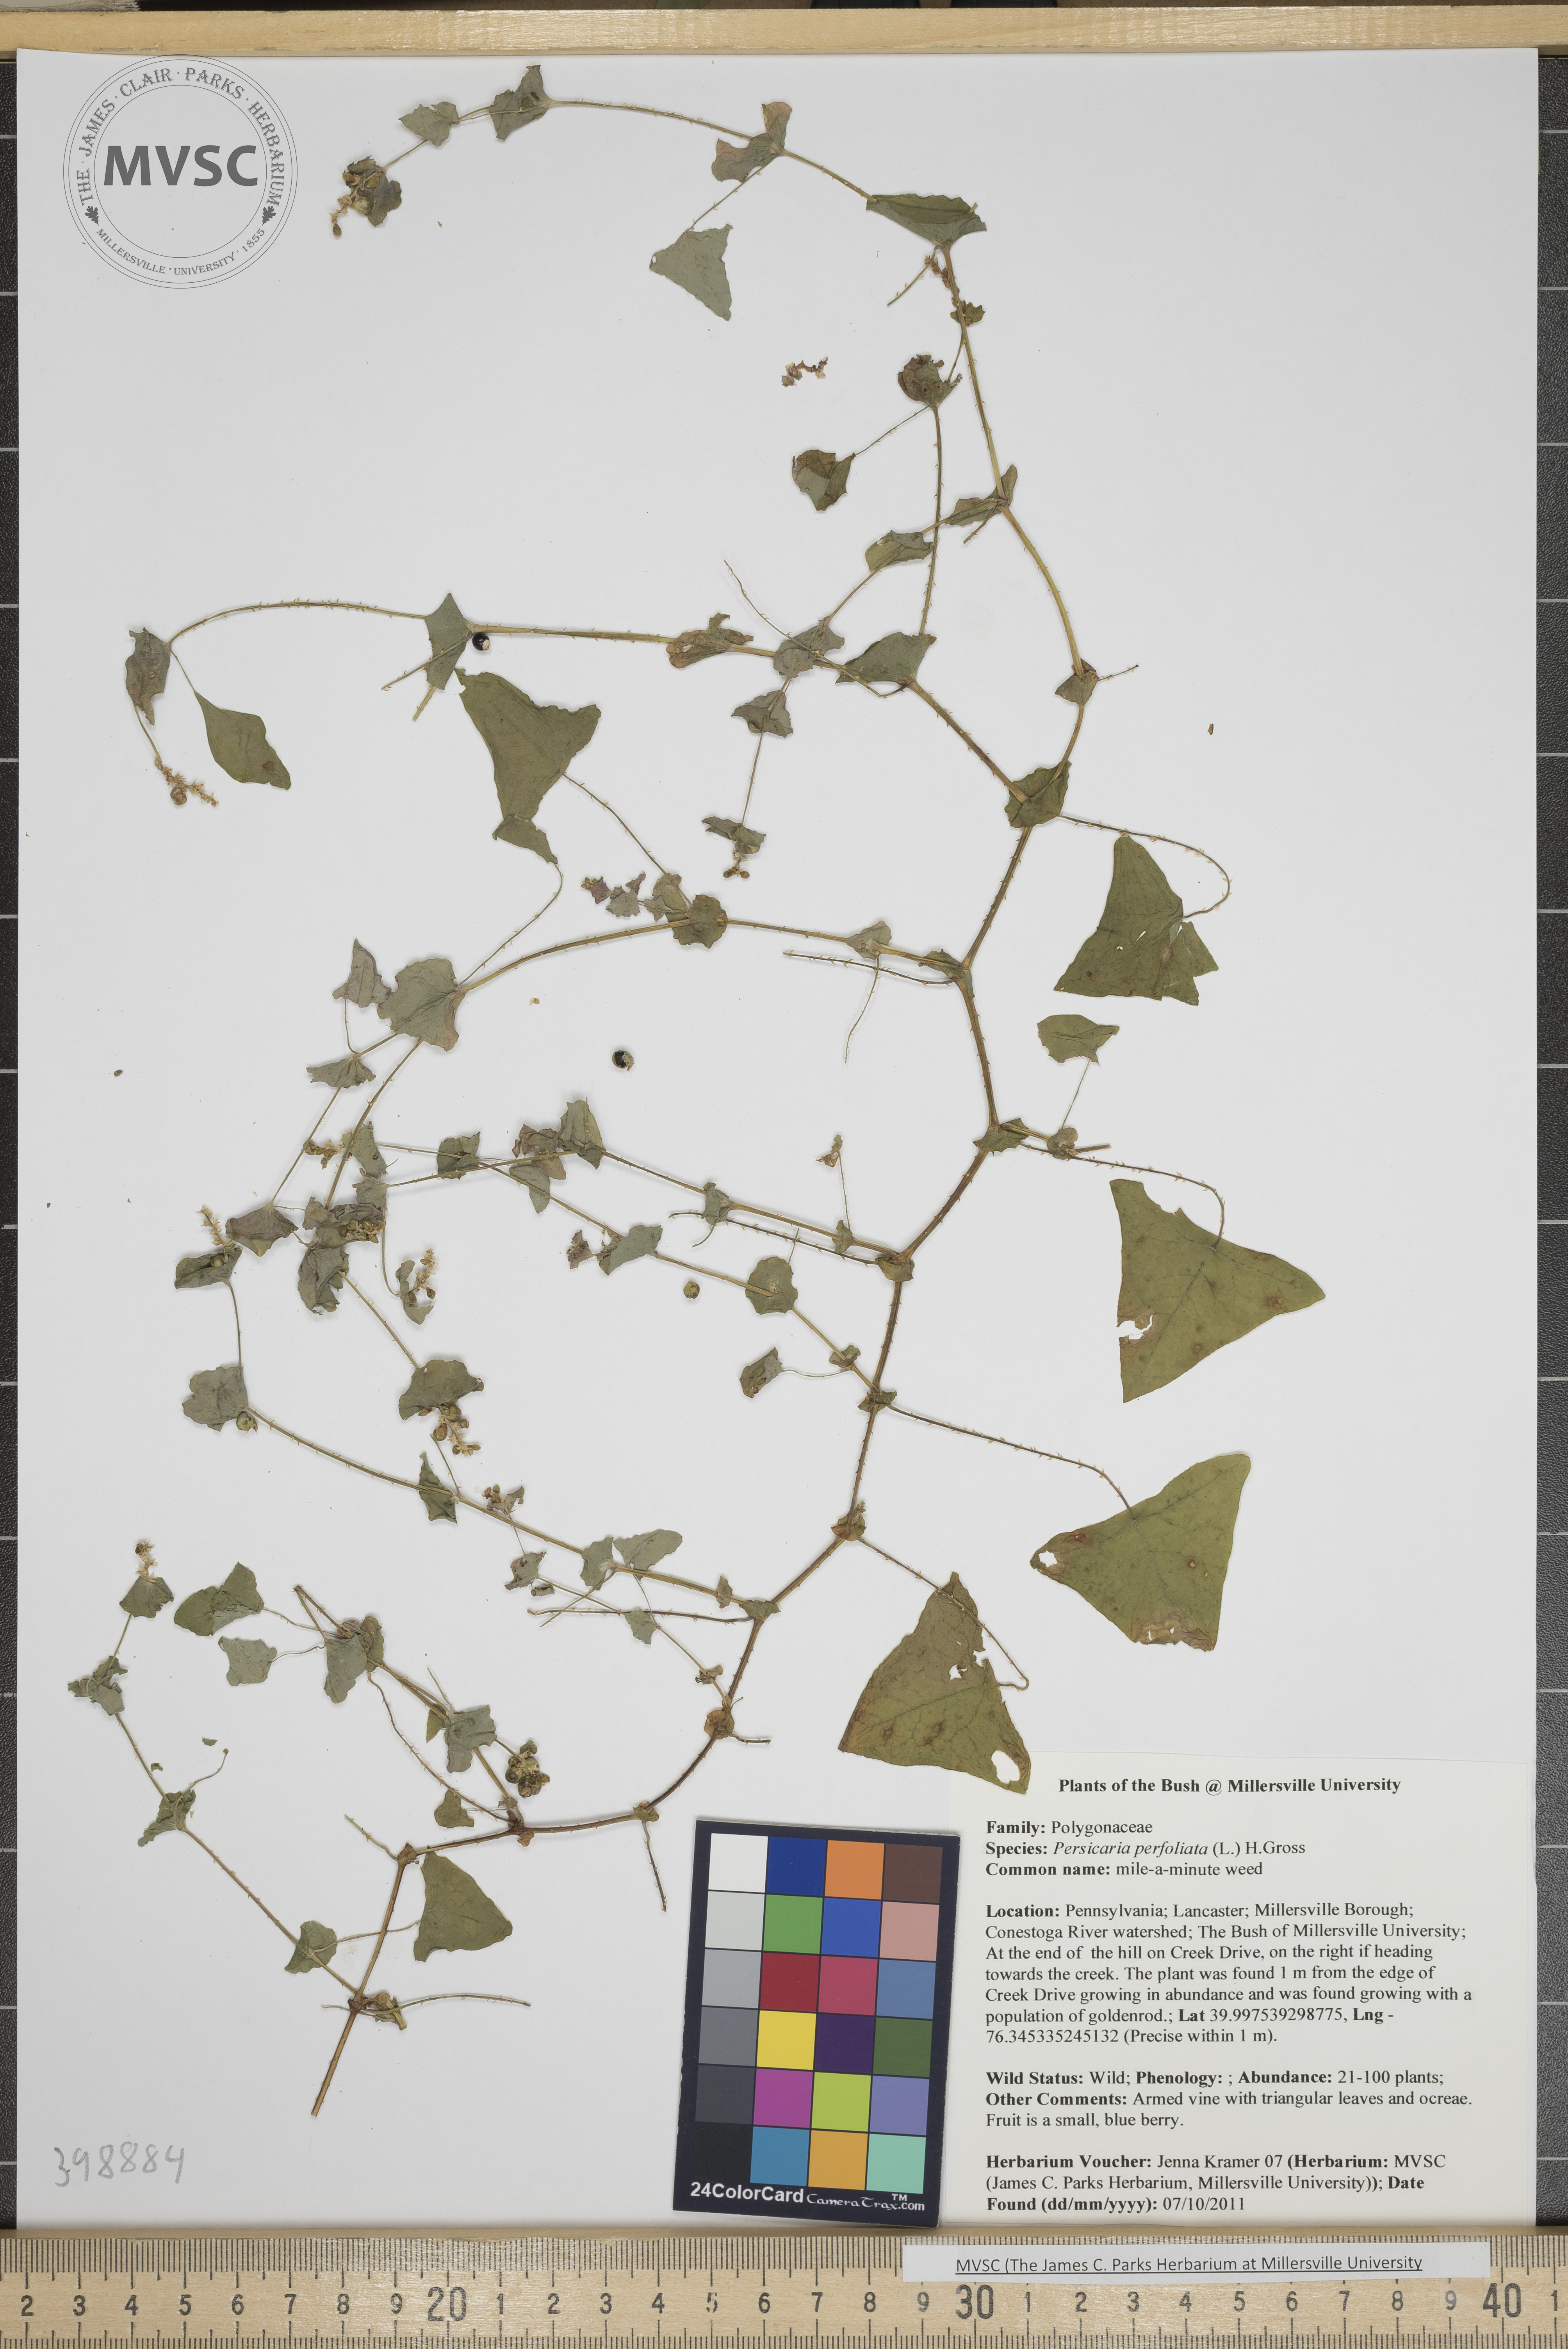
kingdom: Plantae
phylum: Tracheophyta
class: Magnoliopsida
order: Caryophyllales
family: Polygonaceae
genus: Persicaria
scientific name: Persicaria perfoliata
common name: Mile-a-minute weed
